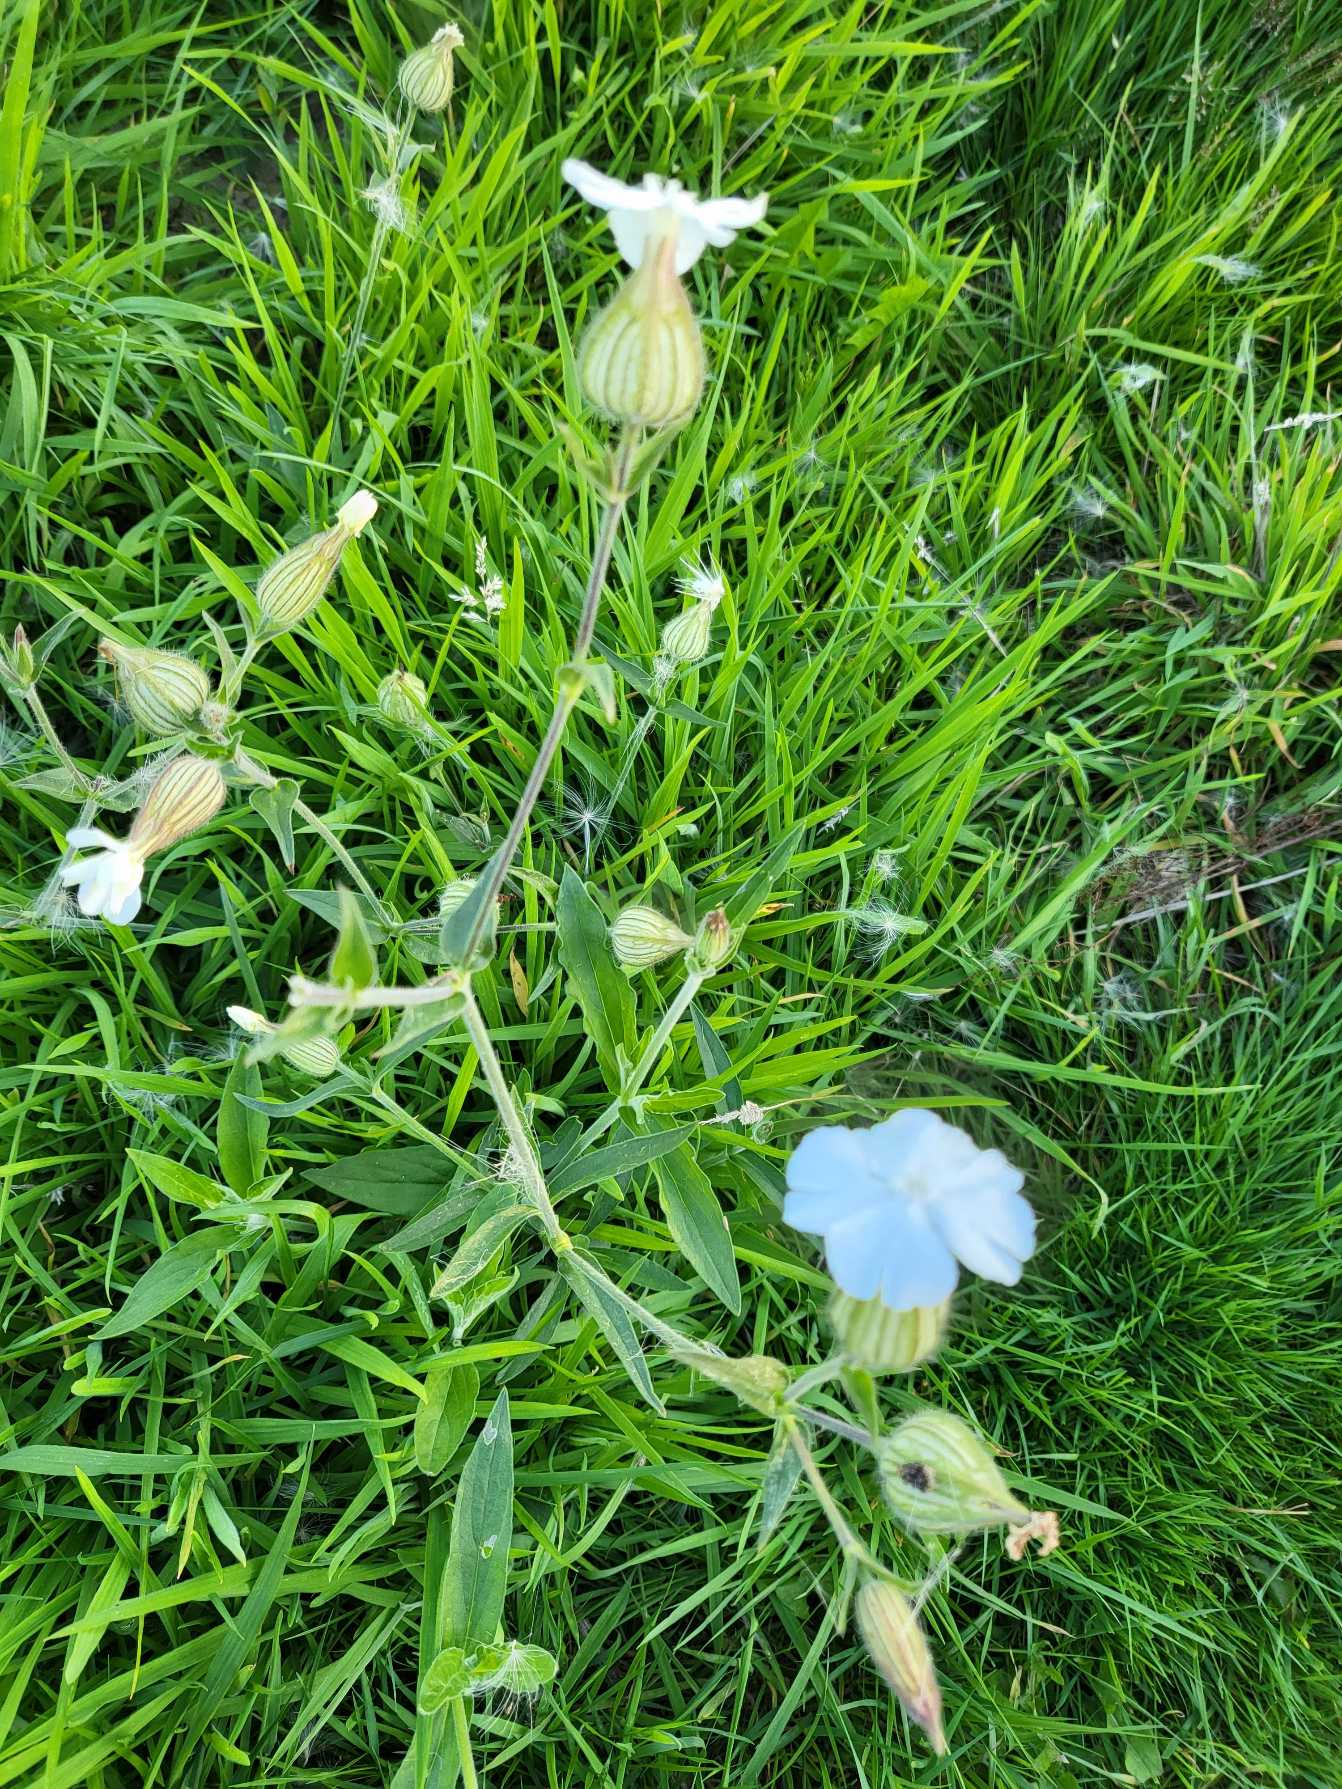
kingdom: Plantae
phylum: Tracheophyta
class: Magnoliopsida
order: Caryophyllales
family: Caryophyllaceae
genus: Silene
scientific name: Silene latifolia
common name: Aftenpragtstjerne
